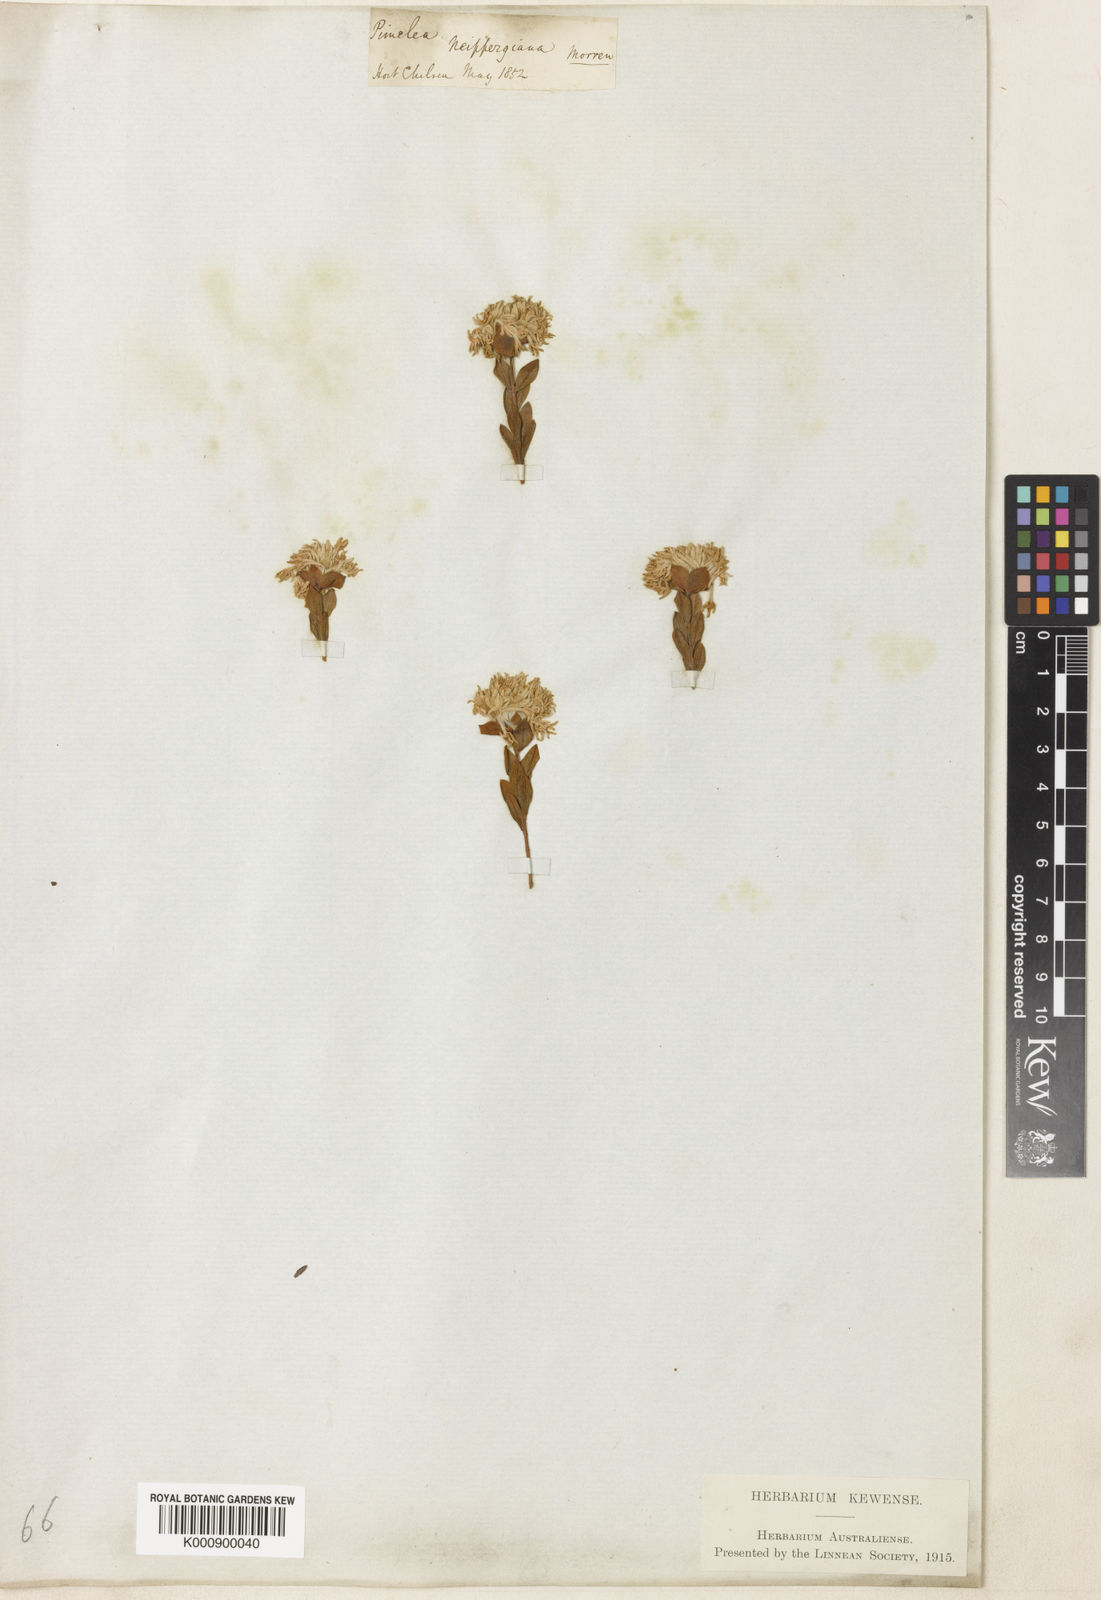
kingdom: Plantae
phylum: Tracheophyta
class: Magnoliopsida
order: Malvales
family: Thymelaeaceae
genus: Pimelea
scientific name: Pimelea preissii
